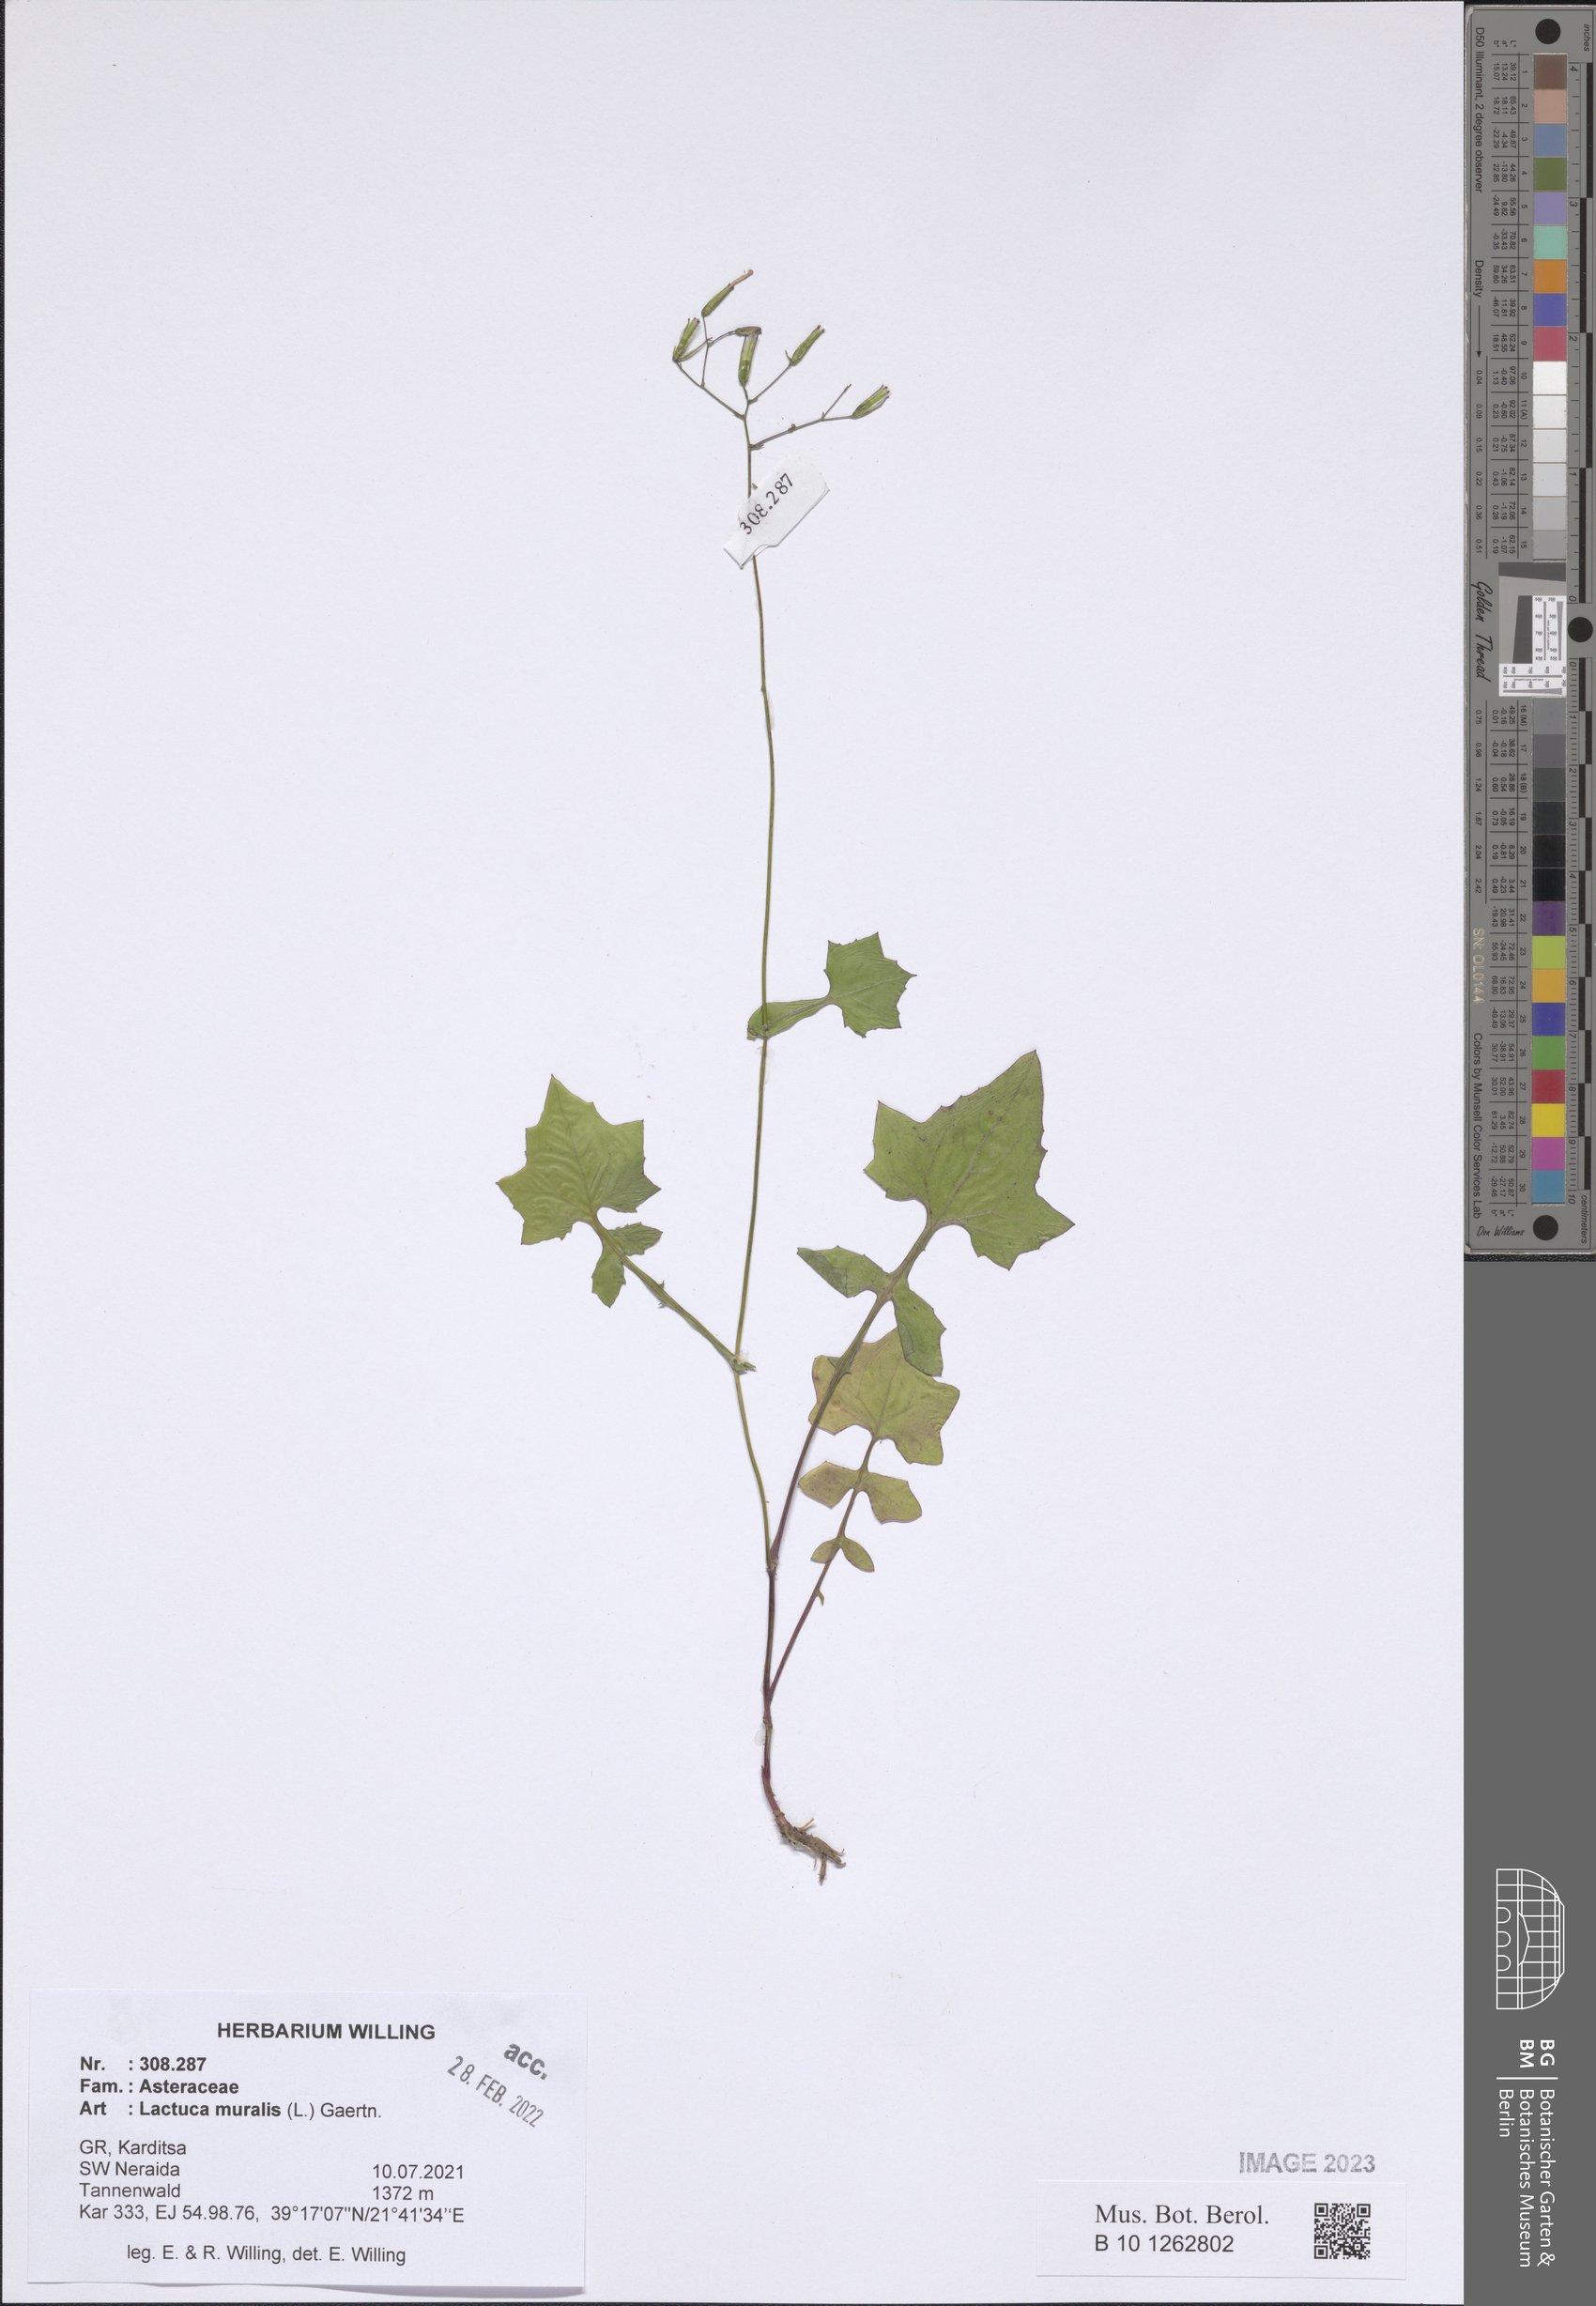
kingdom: Plantae
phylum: Tracheophyta
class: Magnoliopsida
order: Asterales
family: Asteraceae
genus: Mycelis
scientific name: Mycelis muralis
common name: Wall lettuce
